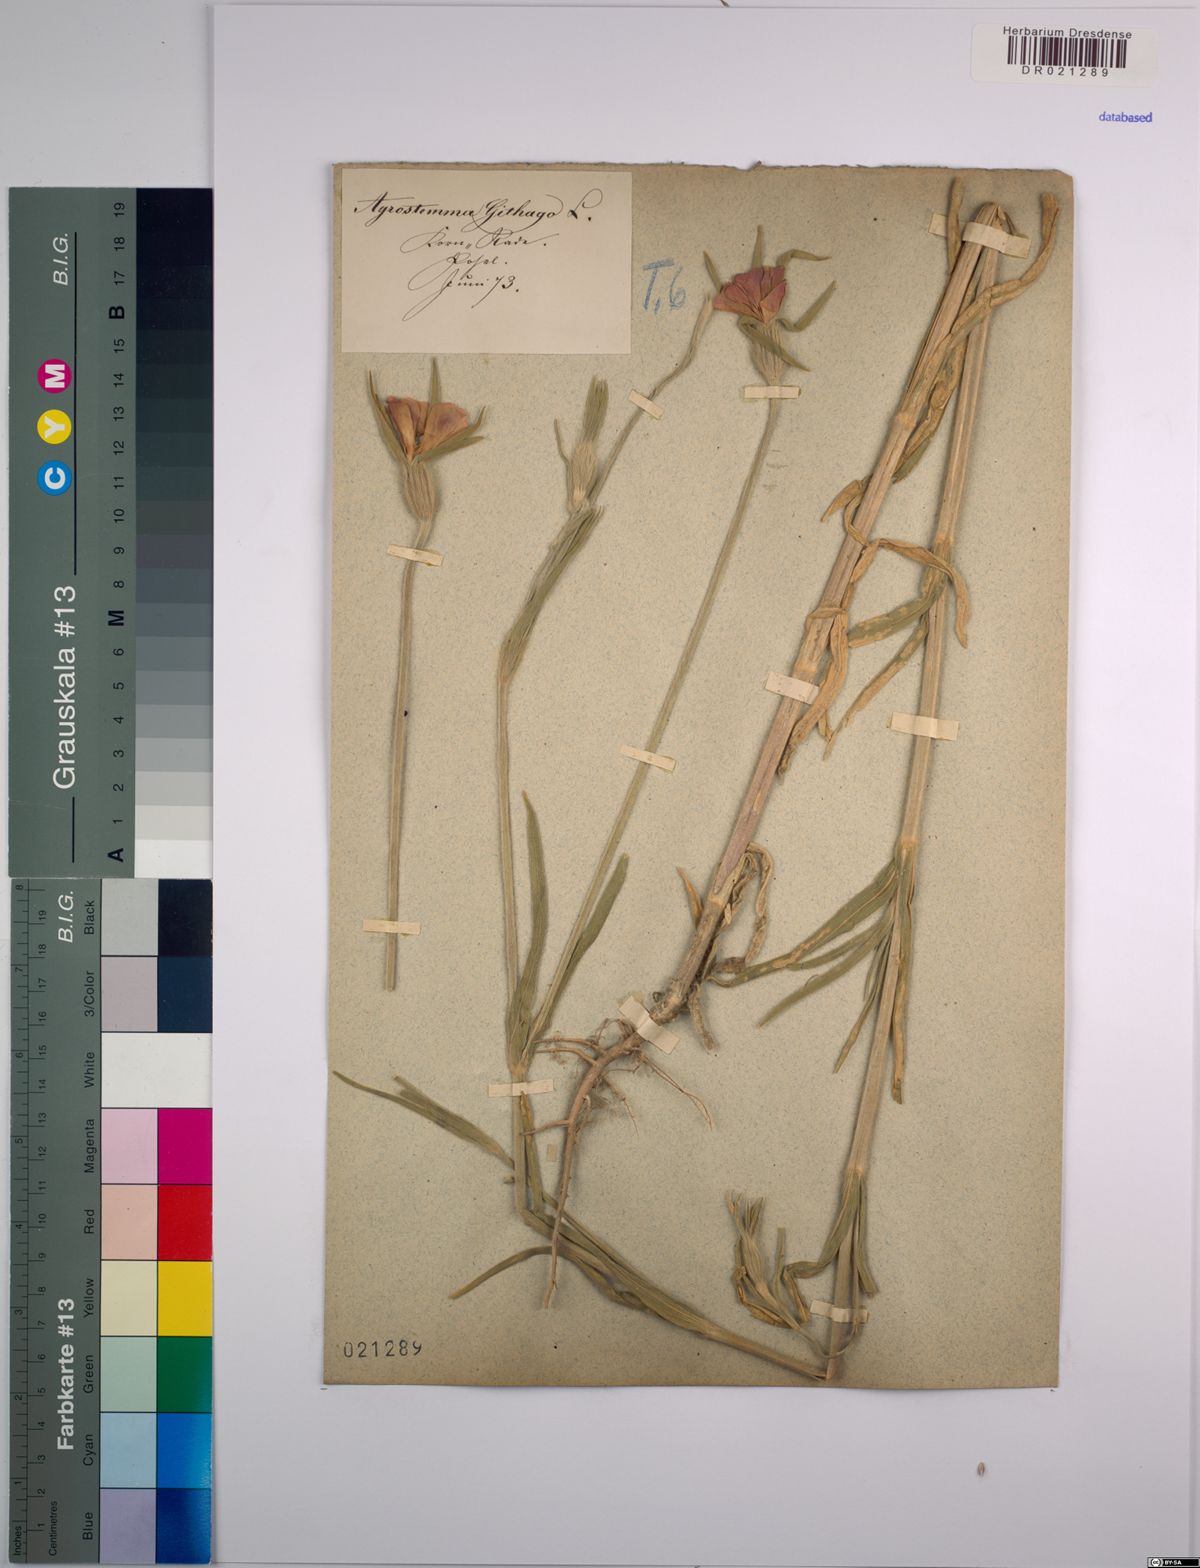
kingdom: Plantae
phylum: Tracheophyta
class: Magnoliopsida
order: Caryophyllales
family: Caryophyllaceae
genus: Agrostemma
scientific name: Agrostemma githago
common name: Common corncockle
